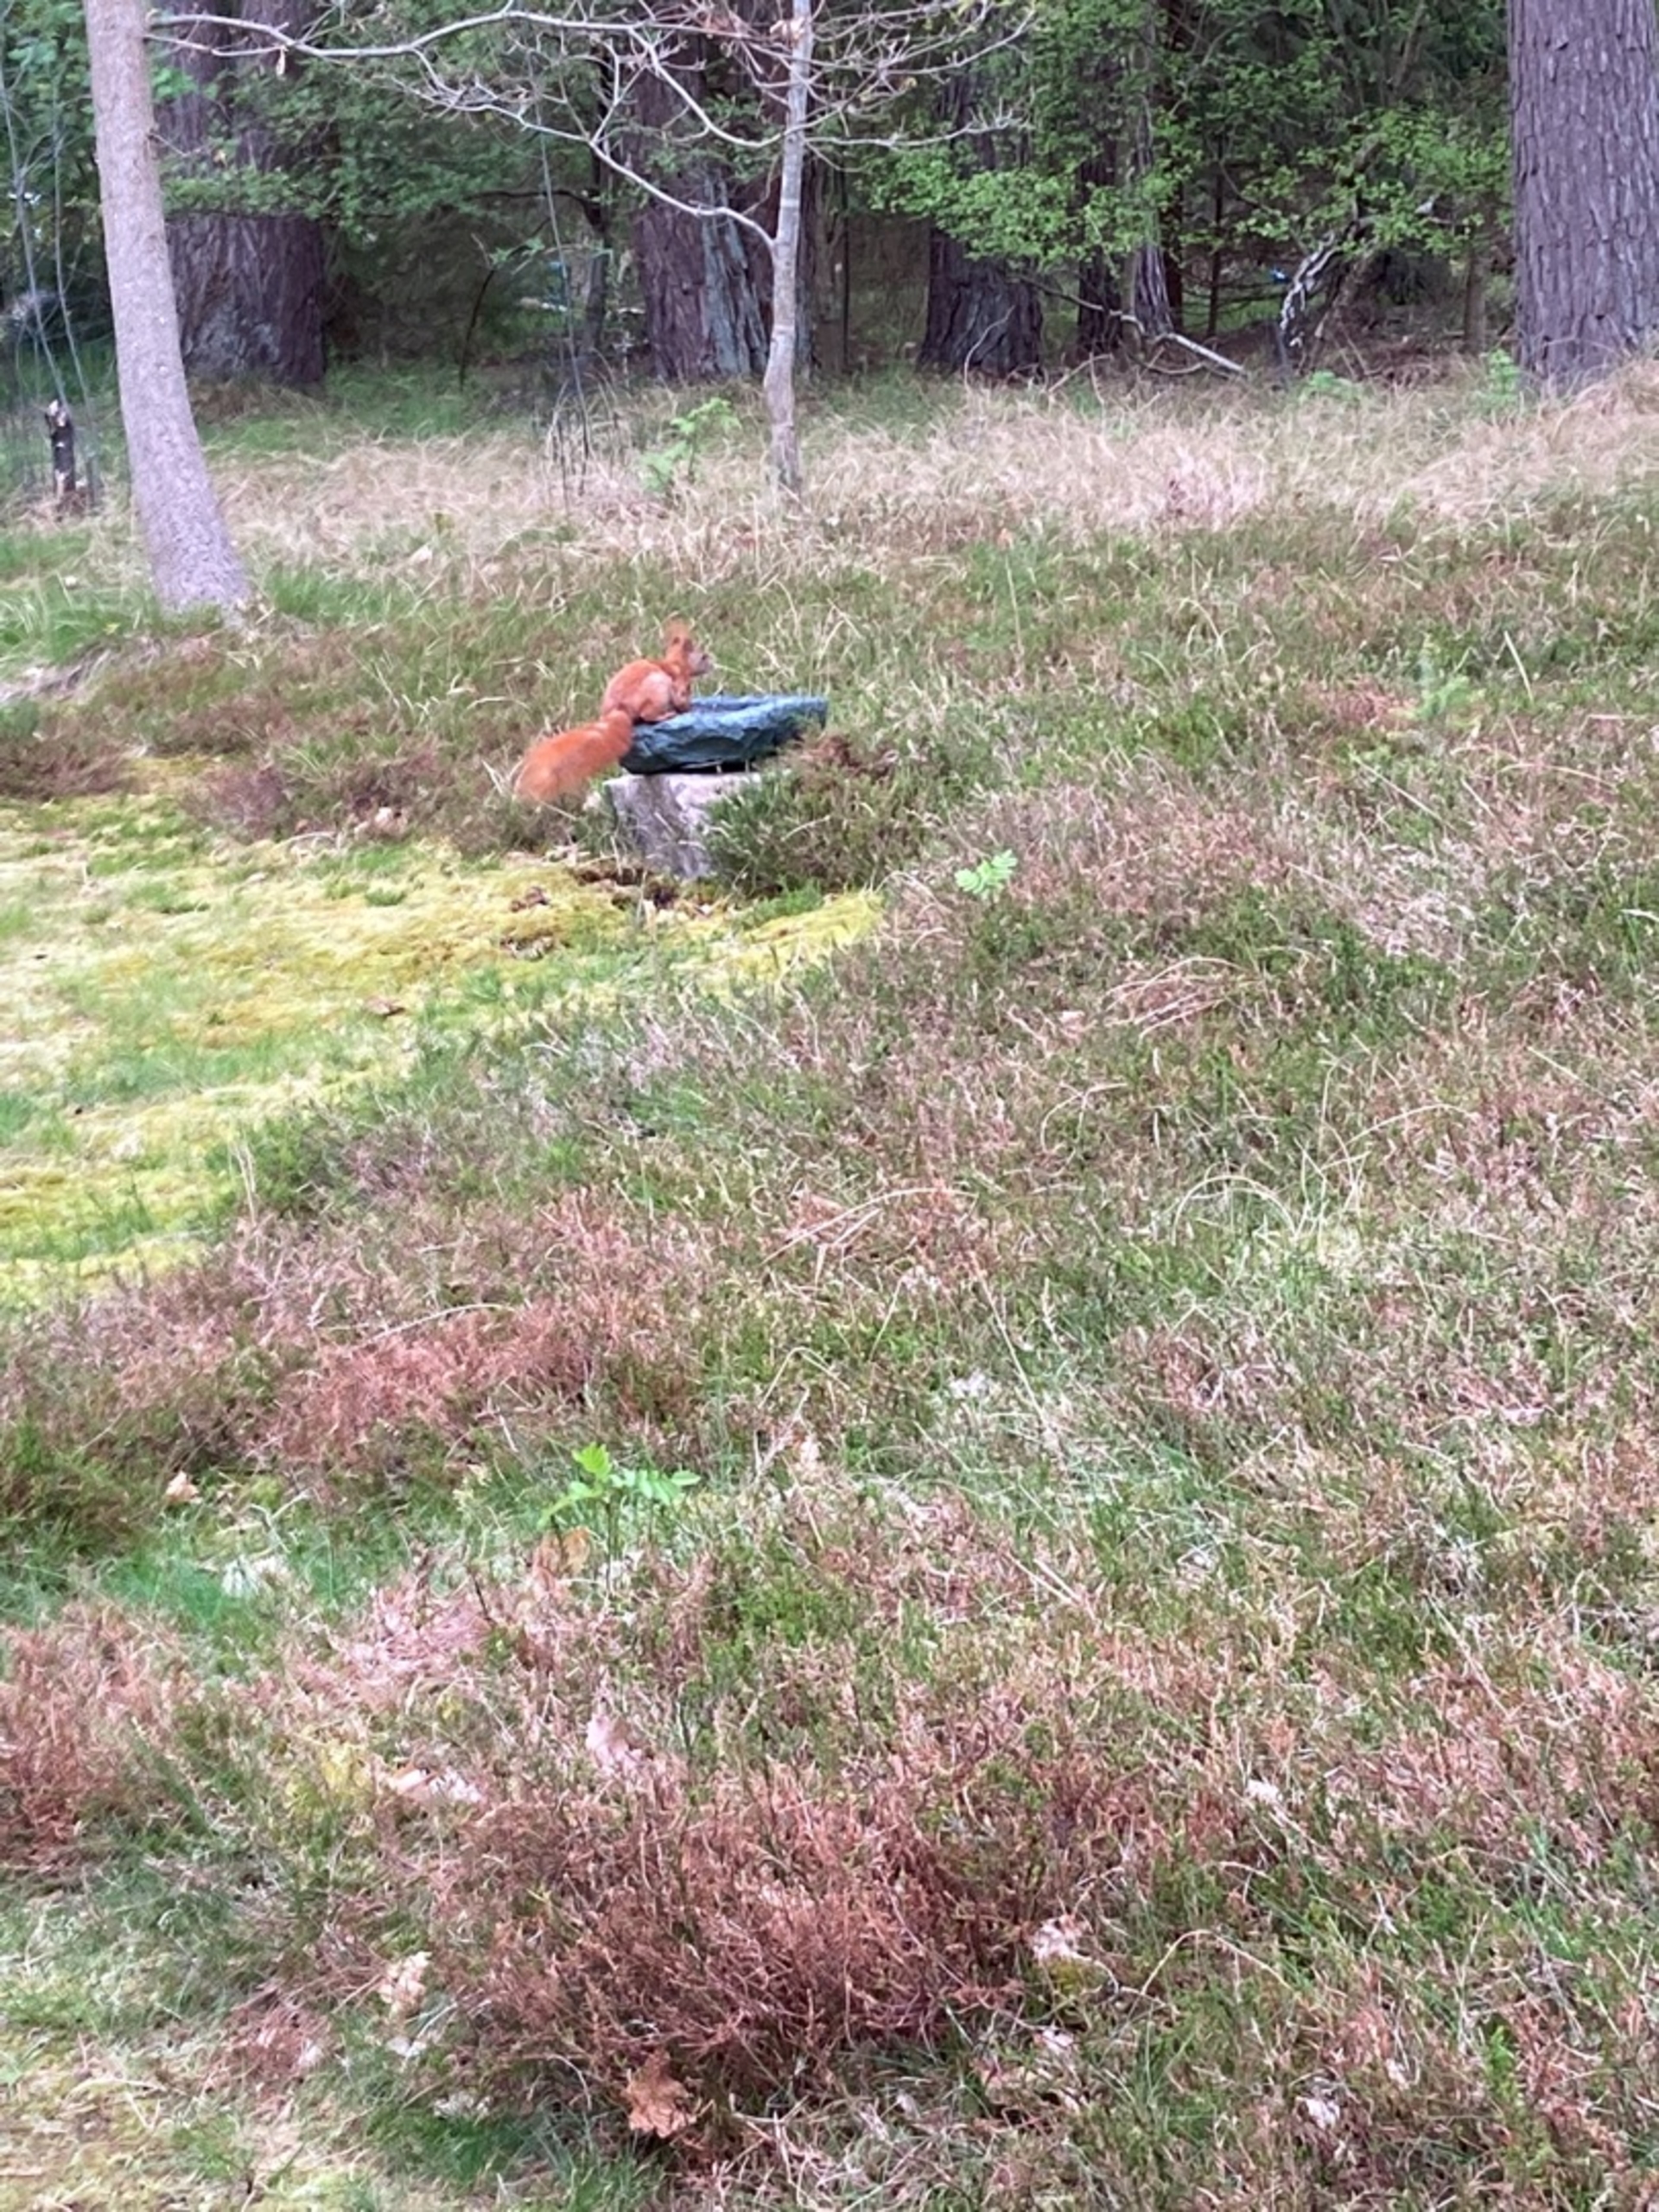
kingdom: Animalia
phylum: Chordata
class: Mammalia
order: Rodentia
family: Sciuridae
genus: Sciurus
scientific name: Sciurus vulgaris
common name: Egern
